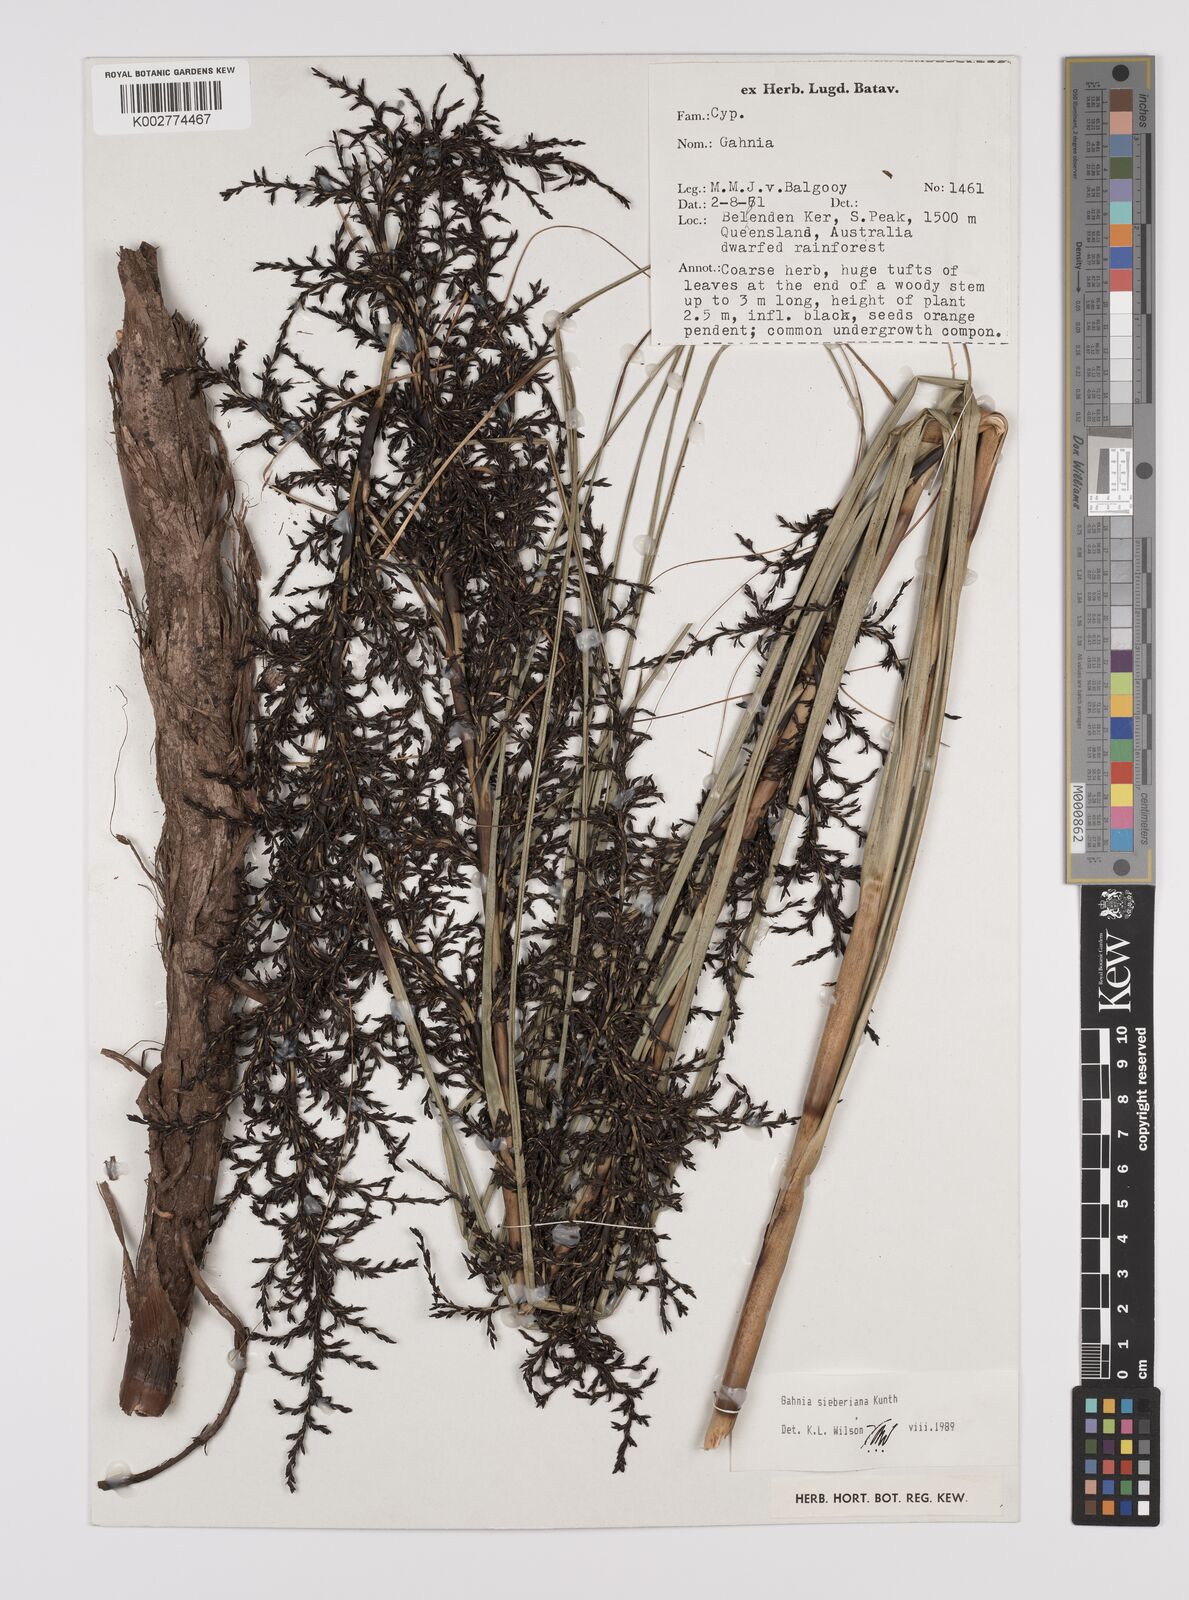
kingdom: Plantae
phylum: Tracheophyta
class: Liliopsida
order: Poales
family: Cyperaceae
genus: Gahnia
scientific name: Gahnia sieberiana
